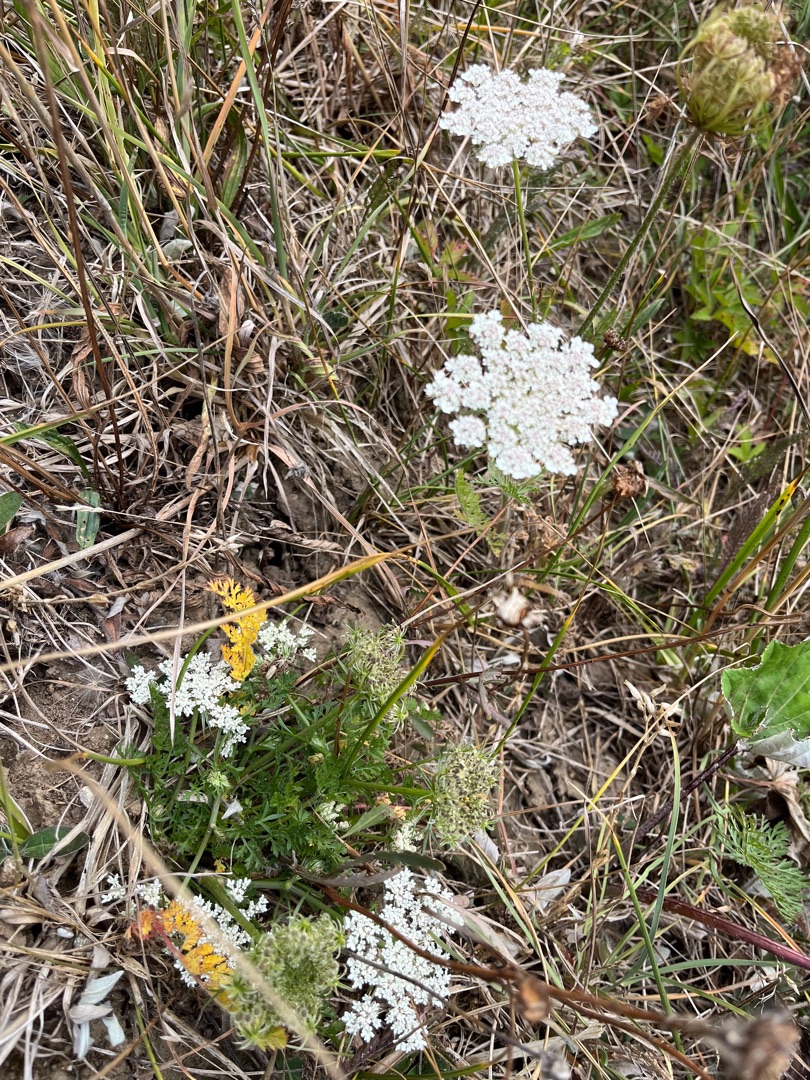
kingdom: Plantae
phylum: Tracheophyta
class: Magnoliopsida
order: Apiales
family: Apiaceae
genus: Daucus
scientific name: Daucus carota
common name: Vild gulerod
